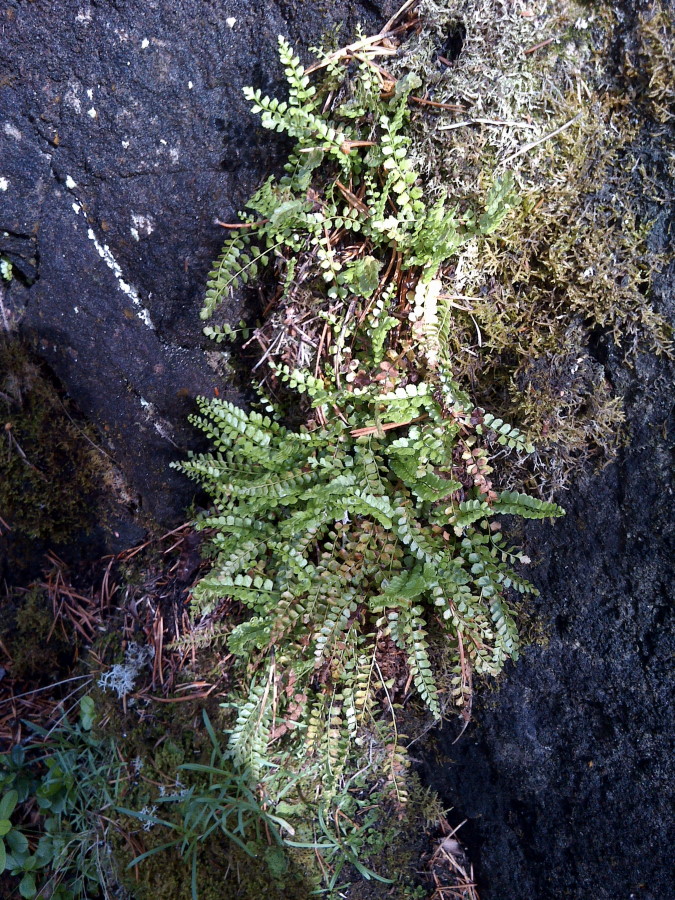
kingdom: Plantae
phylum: Tracheophyta
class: Polypodiopsida
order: Polypodiales
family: Aspleniaceae
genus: Asplenium
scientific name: Asplenium viride
